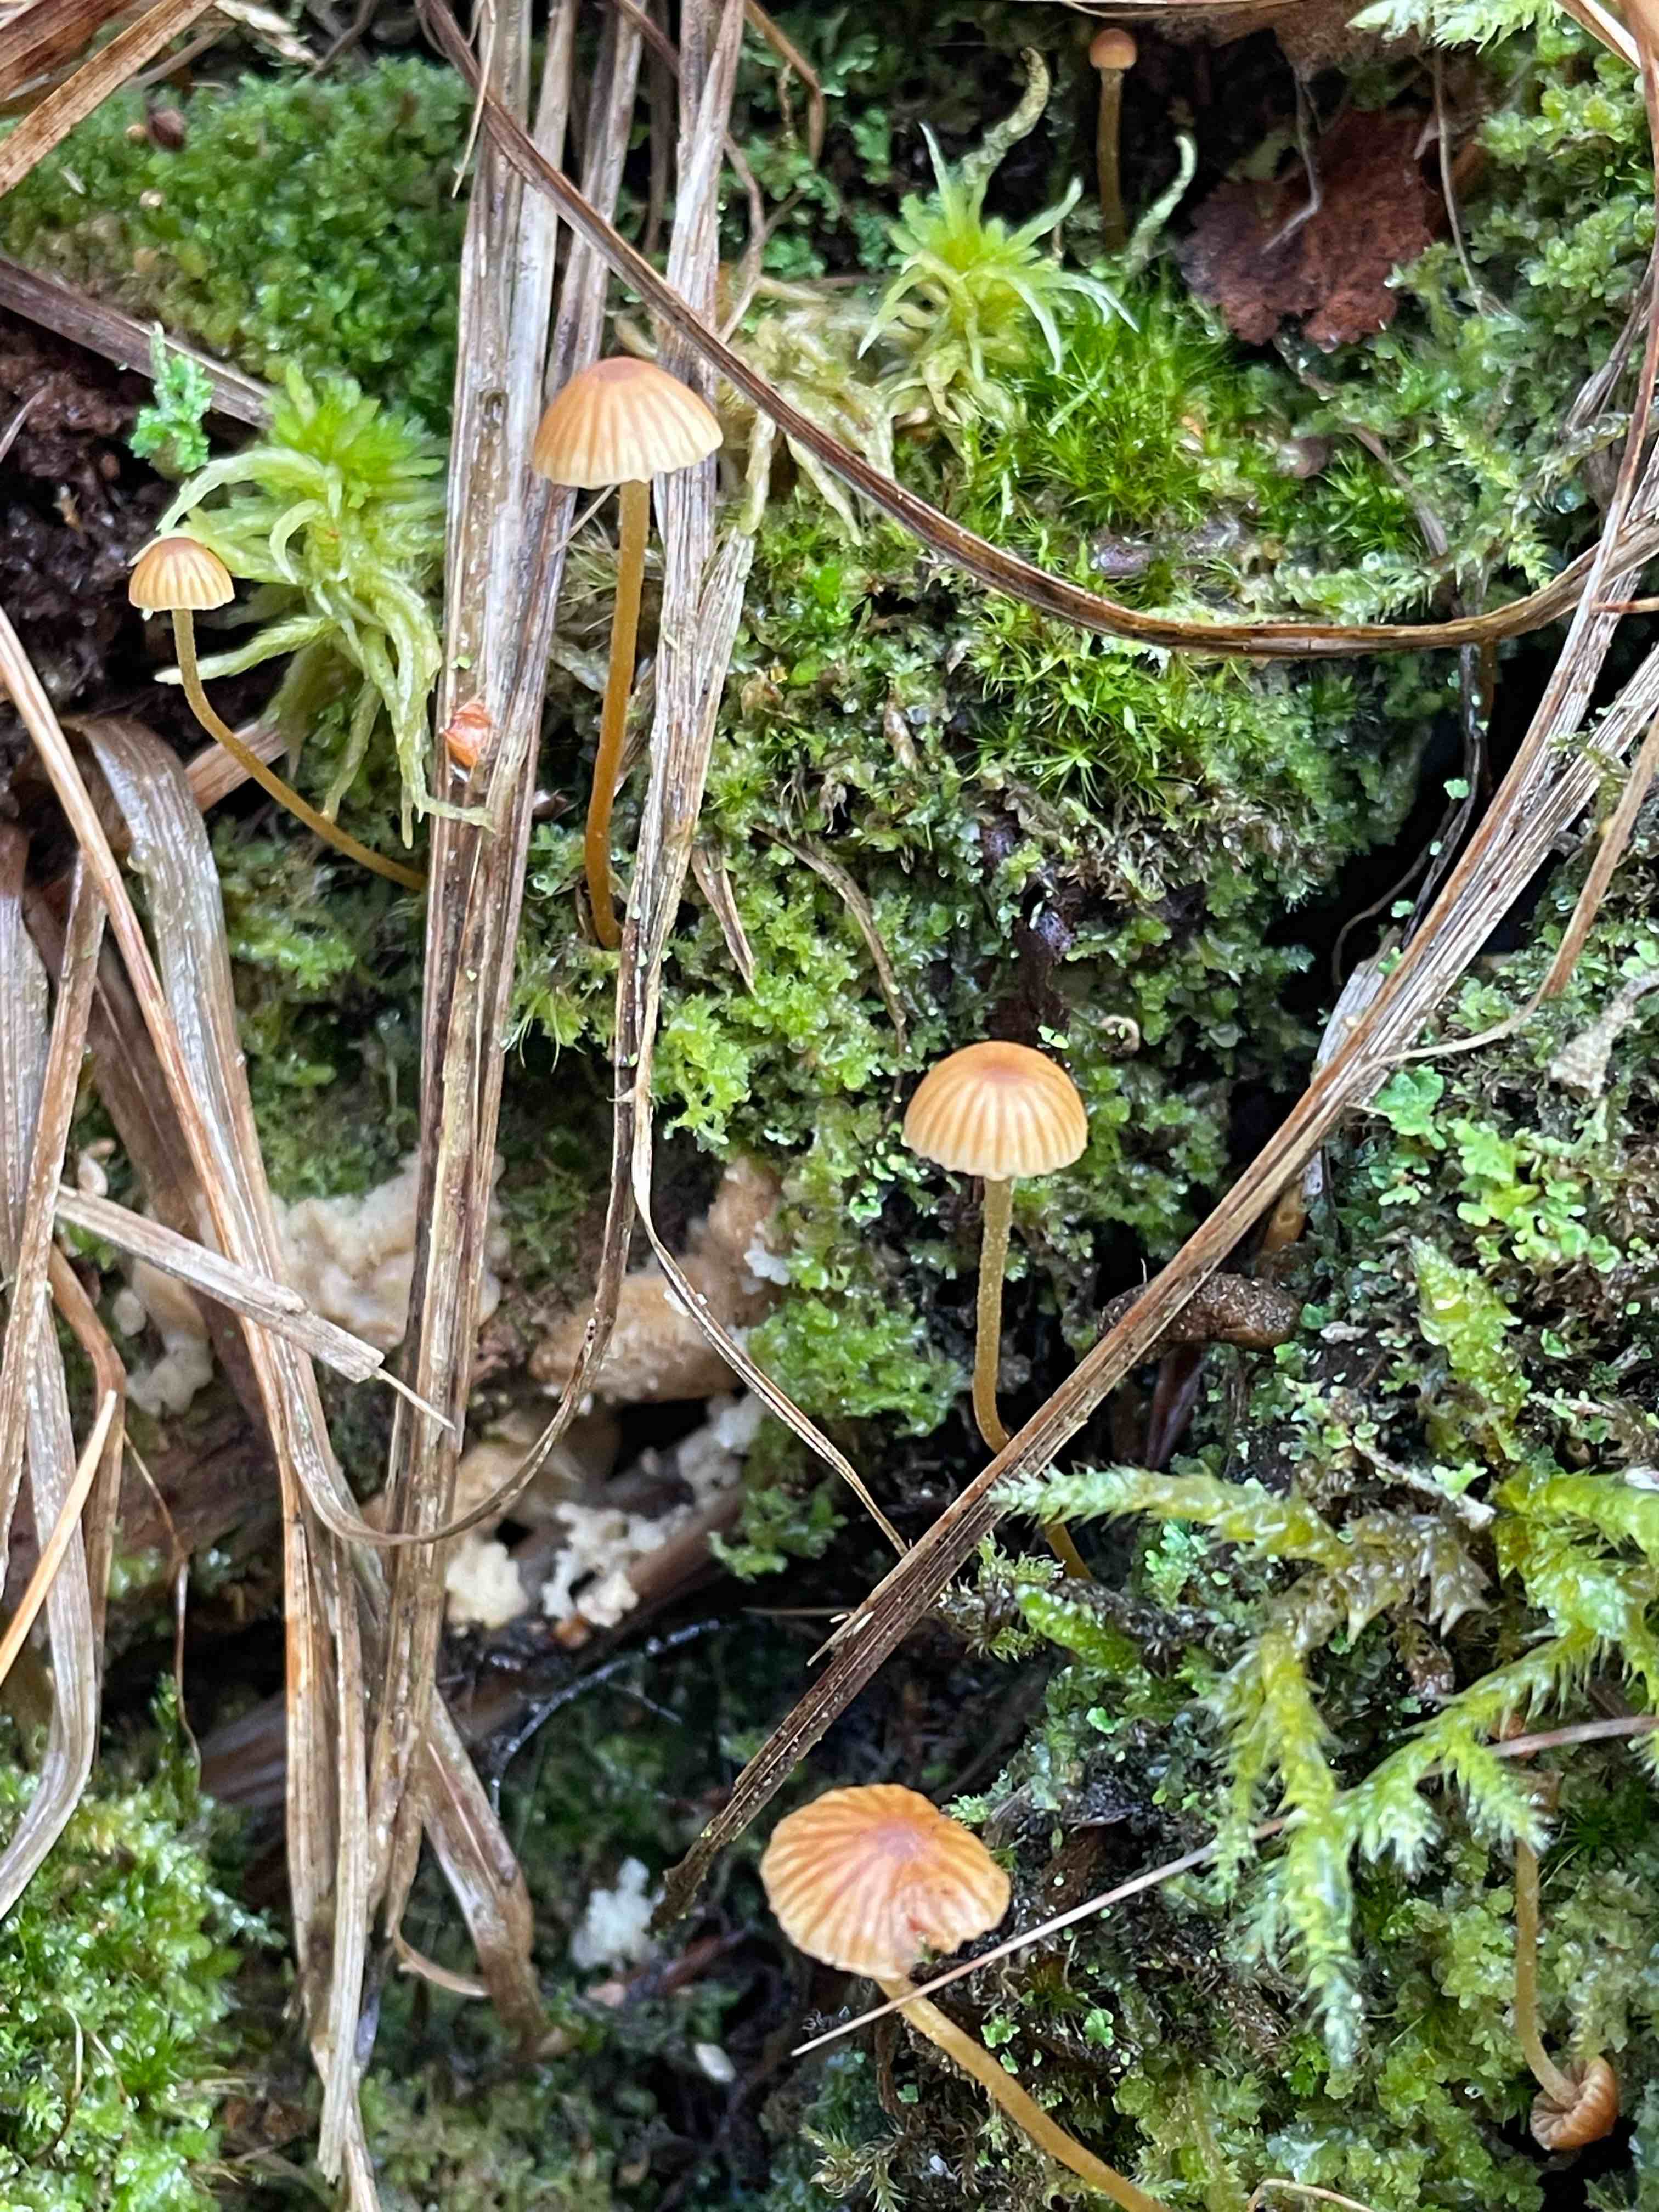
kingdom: Fungi
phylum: Basidiomycota
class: Agaricomycetes
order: Agaricales
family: Hymenogastraceae
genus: Galerina
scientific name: Galerina
